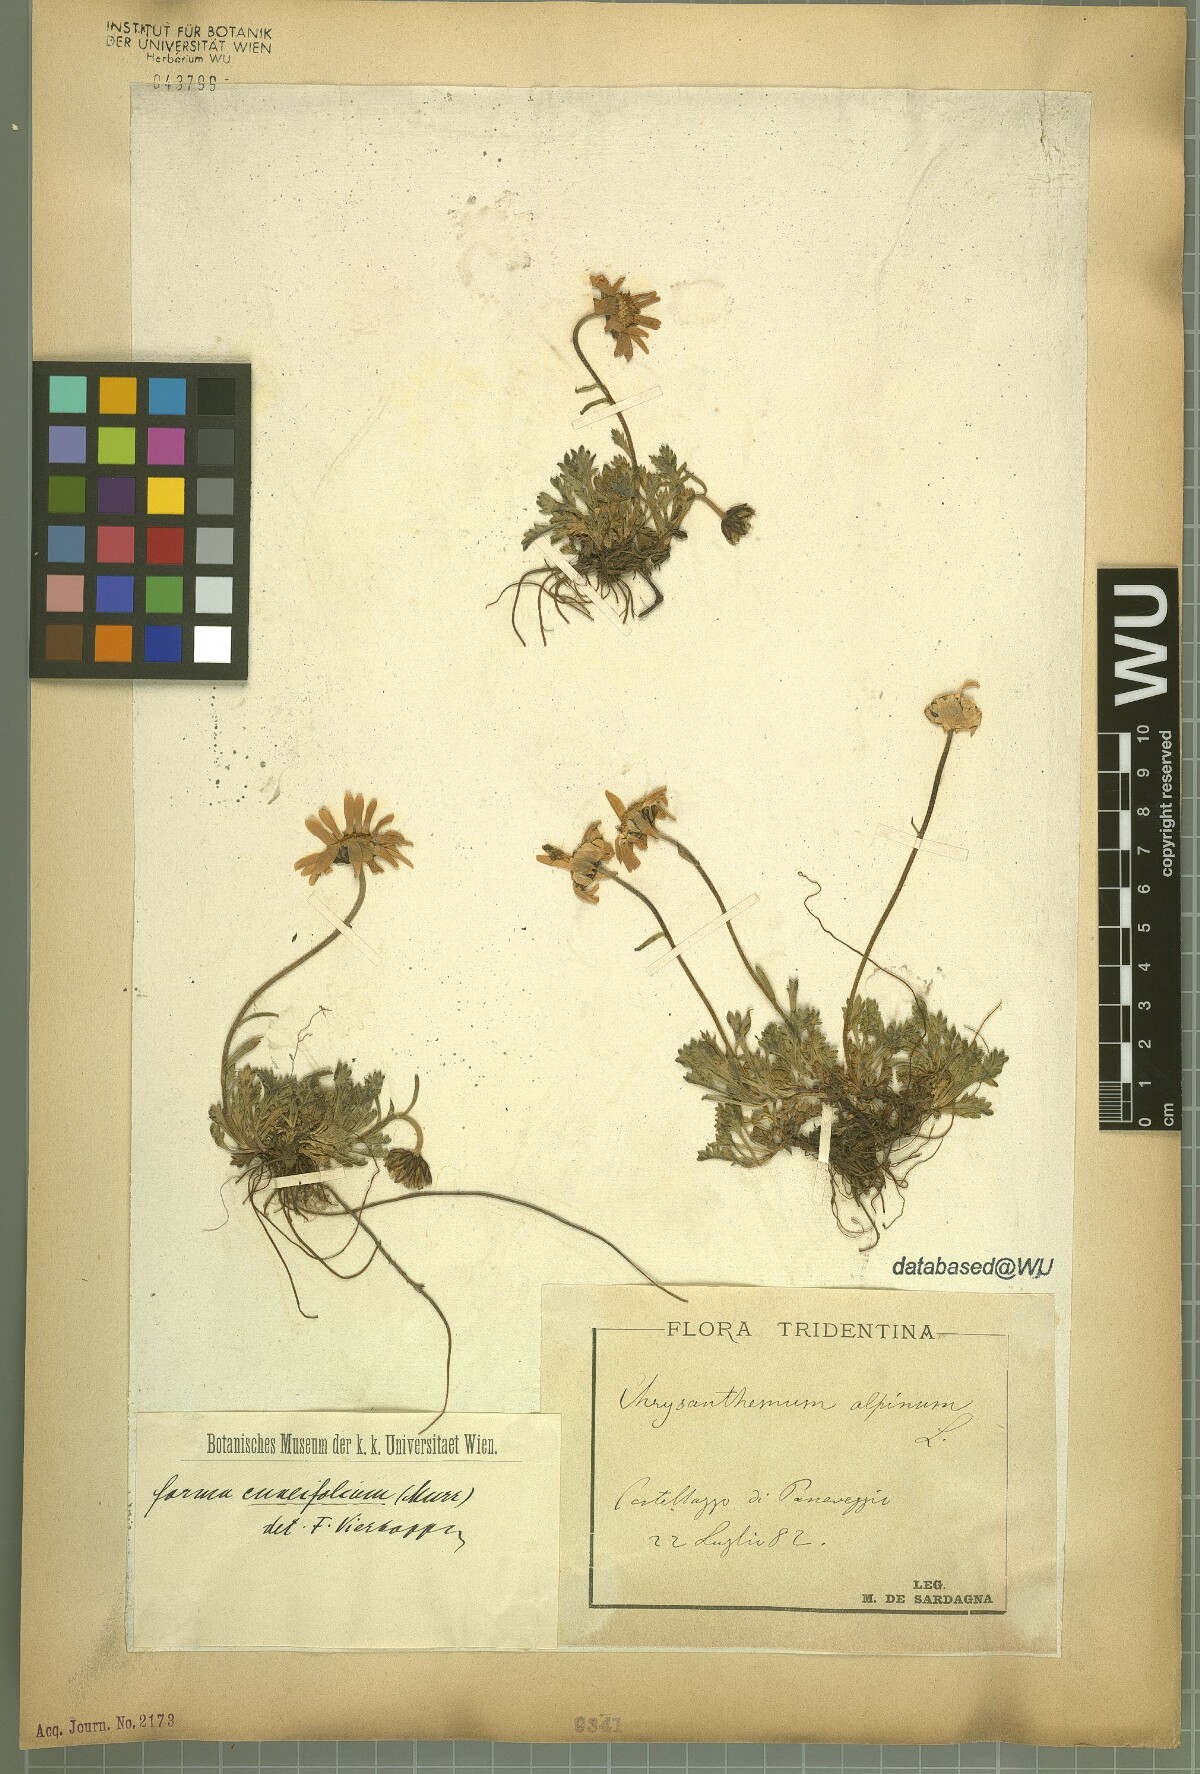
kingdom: Plantae
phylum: Tracheophyta
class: Magnoliopsida
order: Asterales
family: Asteraceae
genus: Leucanthemopsis
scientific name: Leucanthemopsis alpina
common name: Alpine moon daisy
